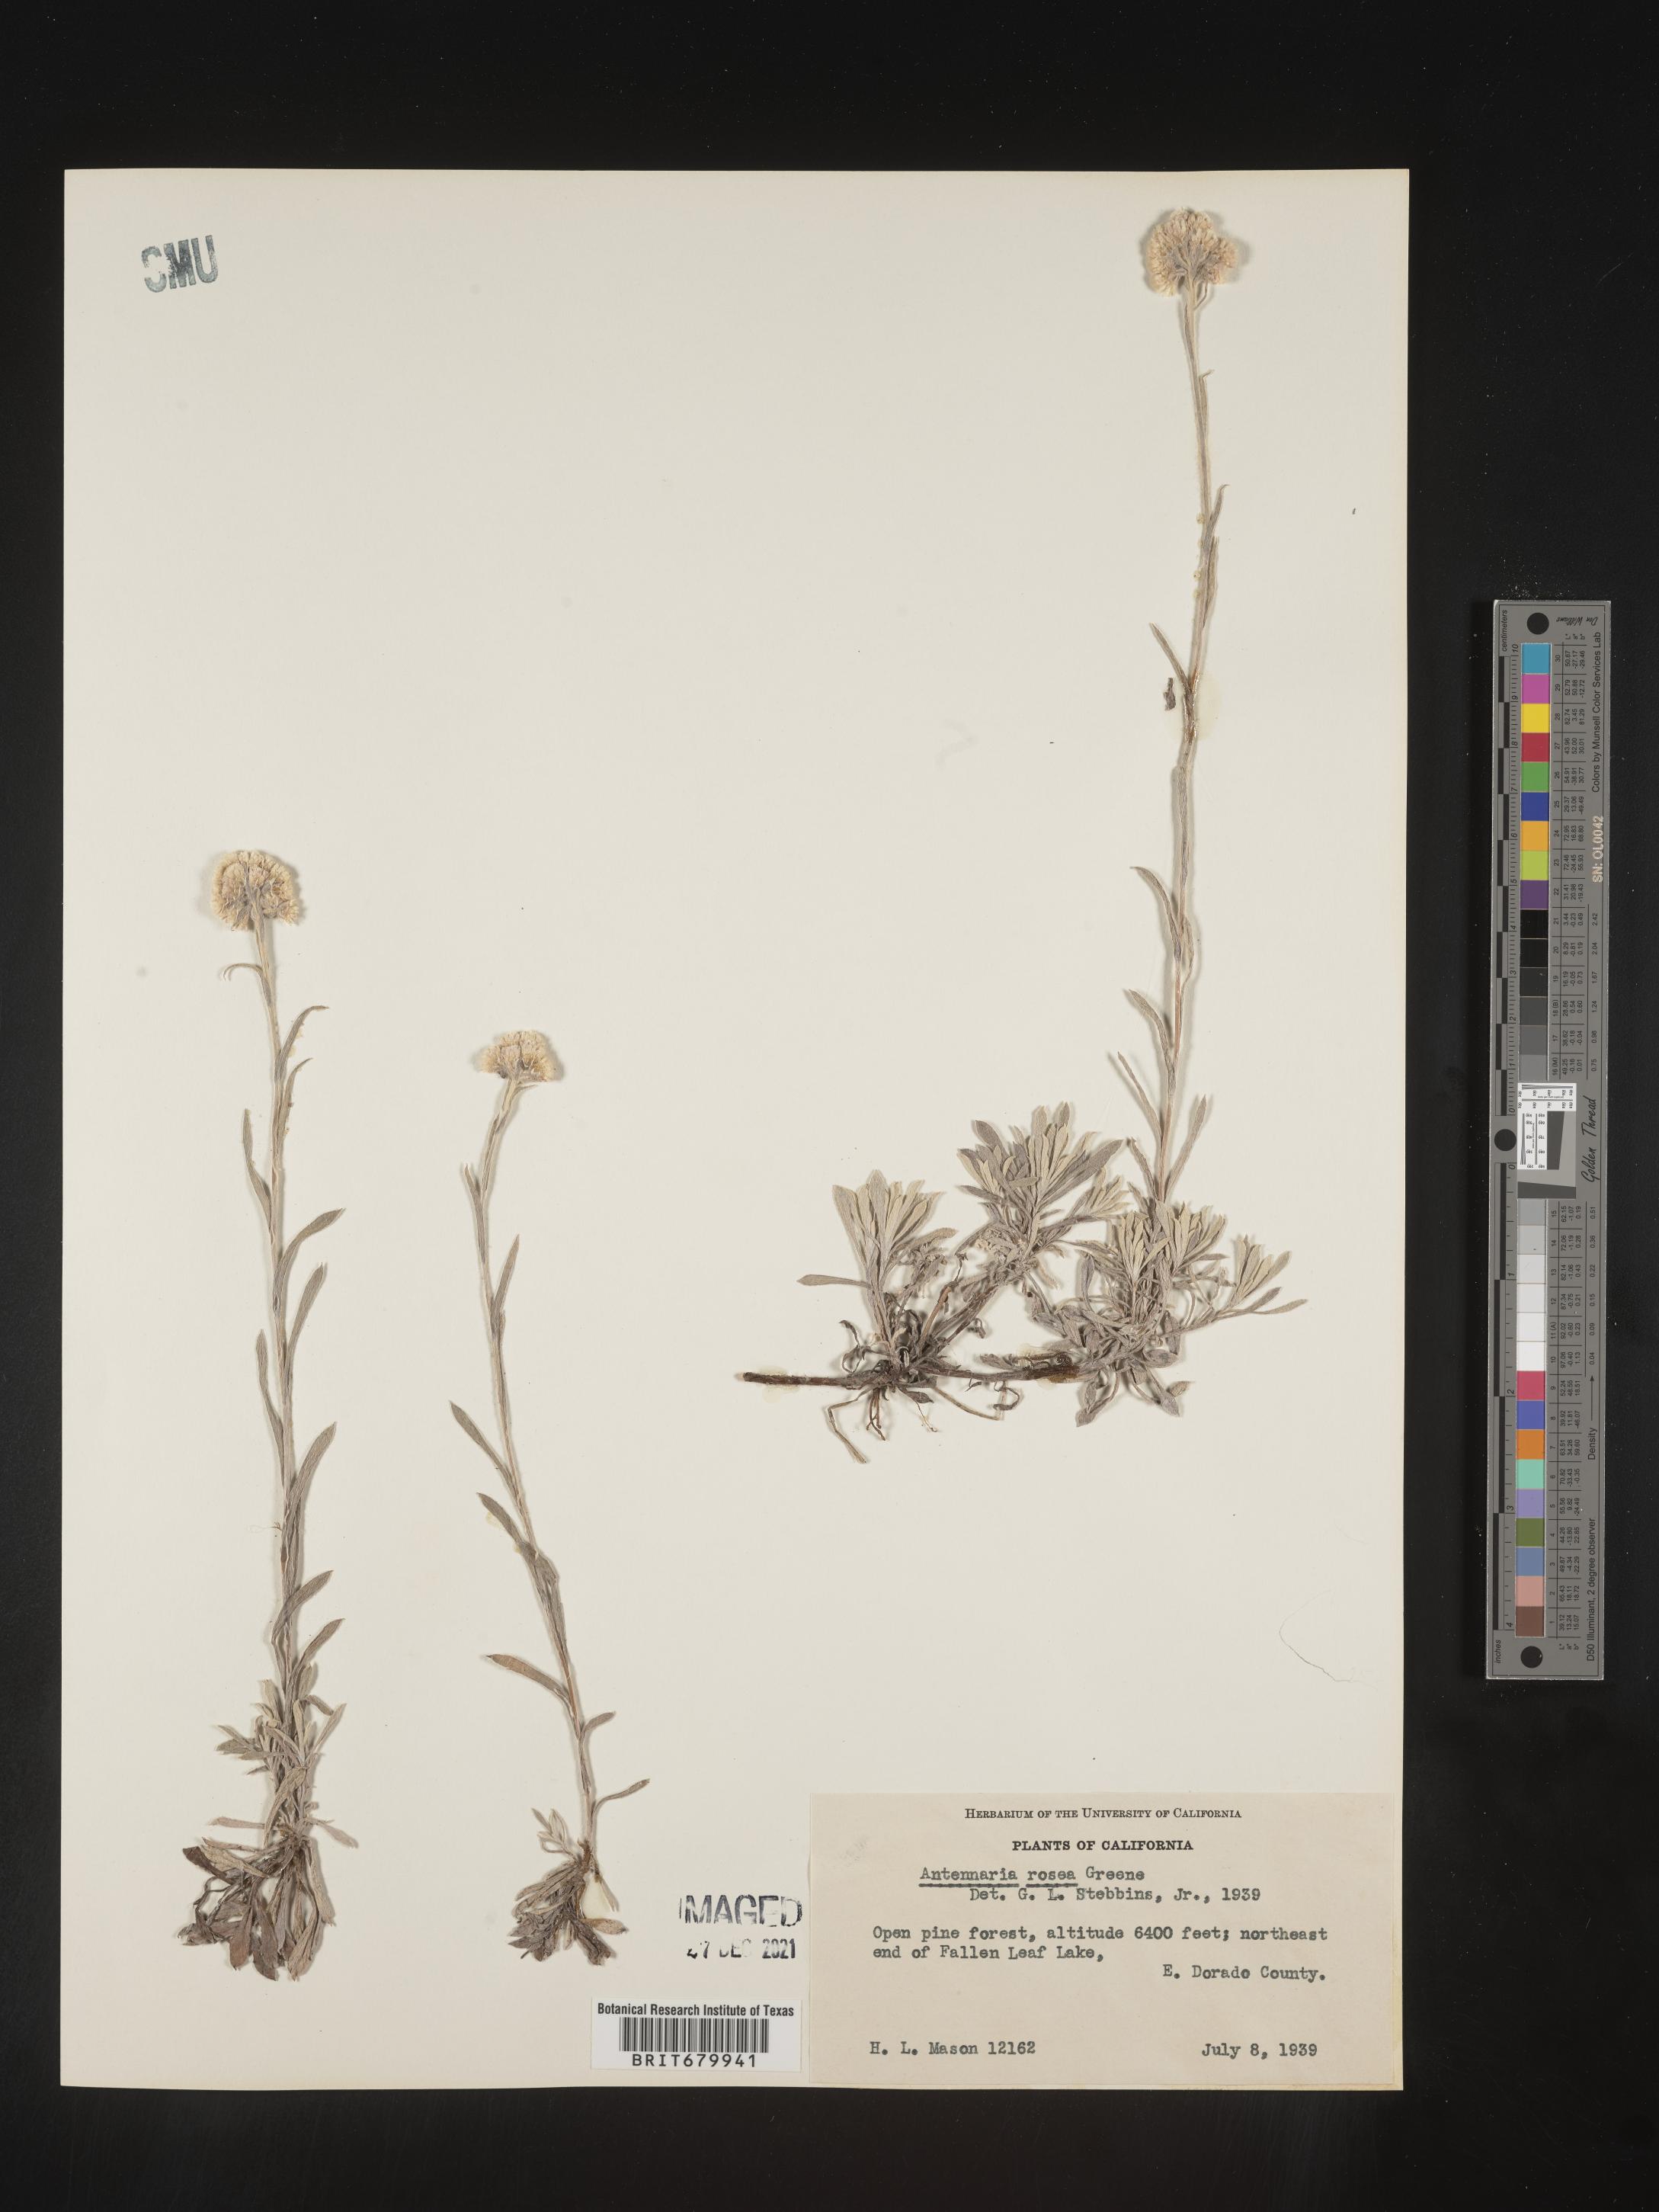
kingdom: Plantae
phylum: Tracheophyta
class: Magnoliopsida
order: Asterales
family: Asteraceae
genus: Antennaria
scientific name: Antennaria rosea
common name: Rosy pussytoes
